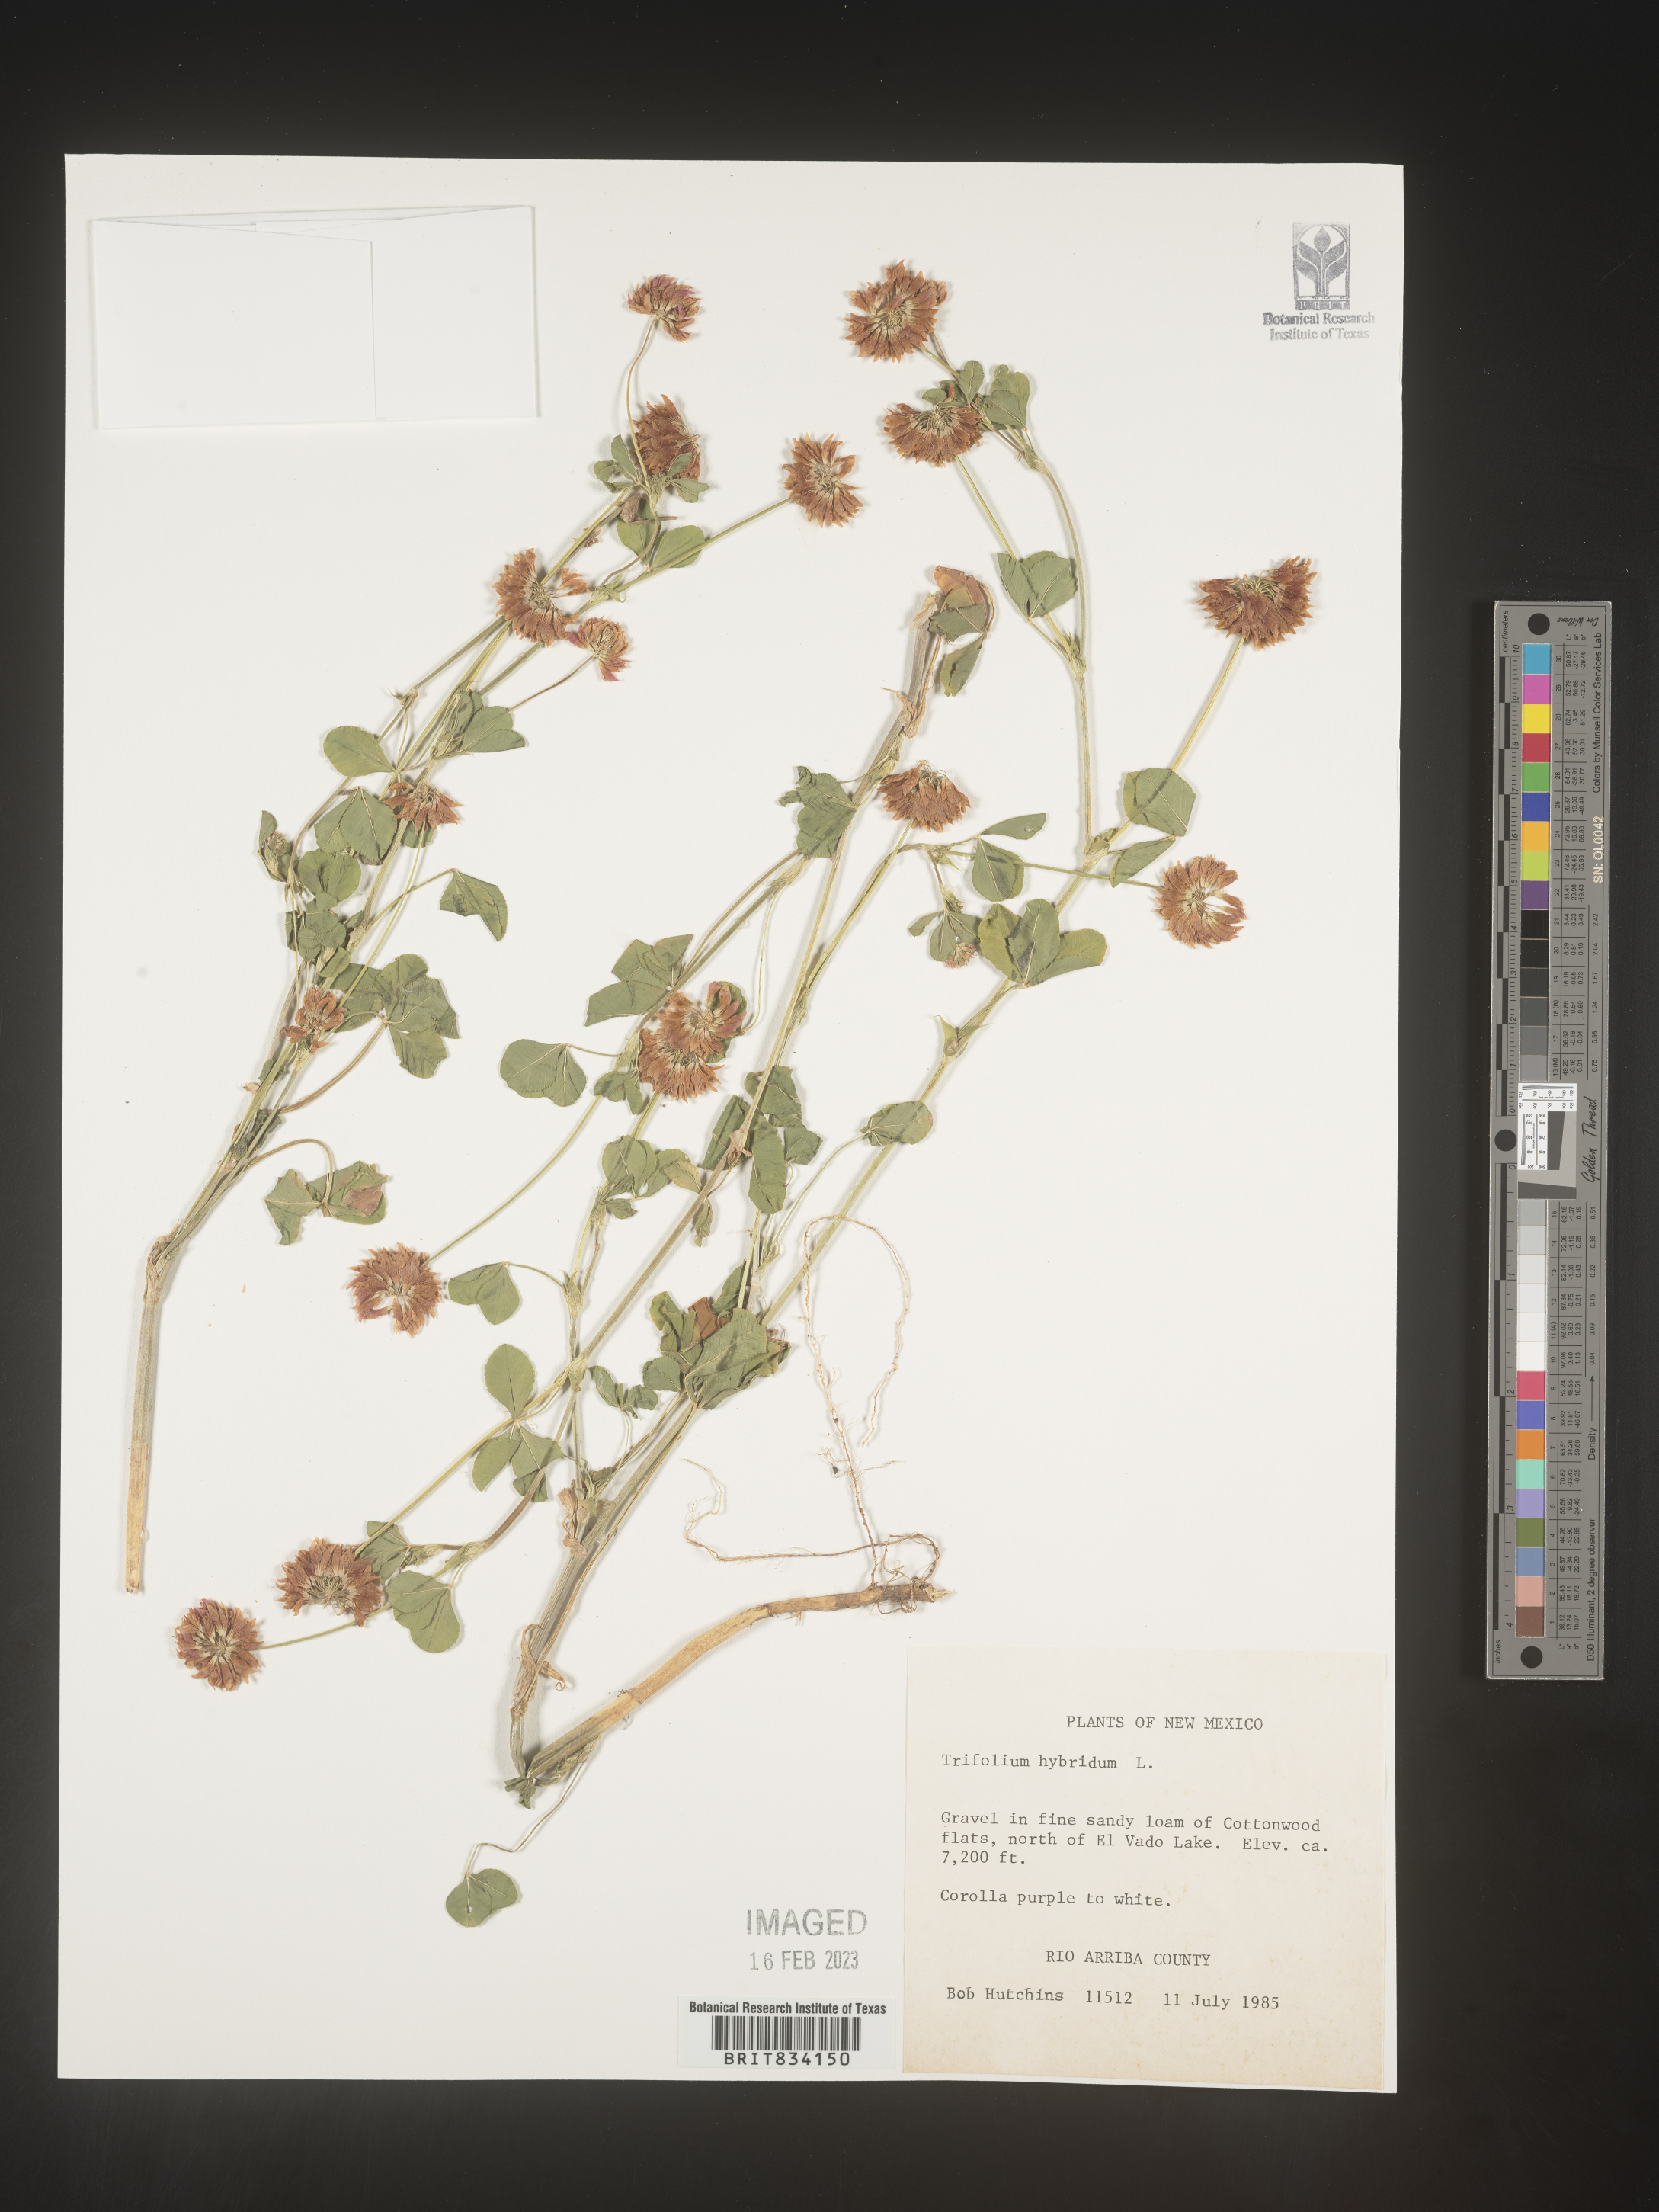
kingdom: Plantae
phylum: Tracheophyta
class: Magnoliopsida
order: Fabales
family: Fabaceae
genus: Trifolium
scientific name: Trifolium hybridum
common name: Alsike clover
